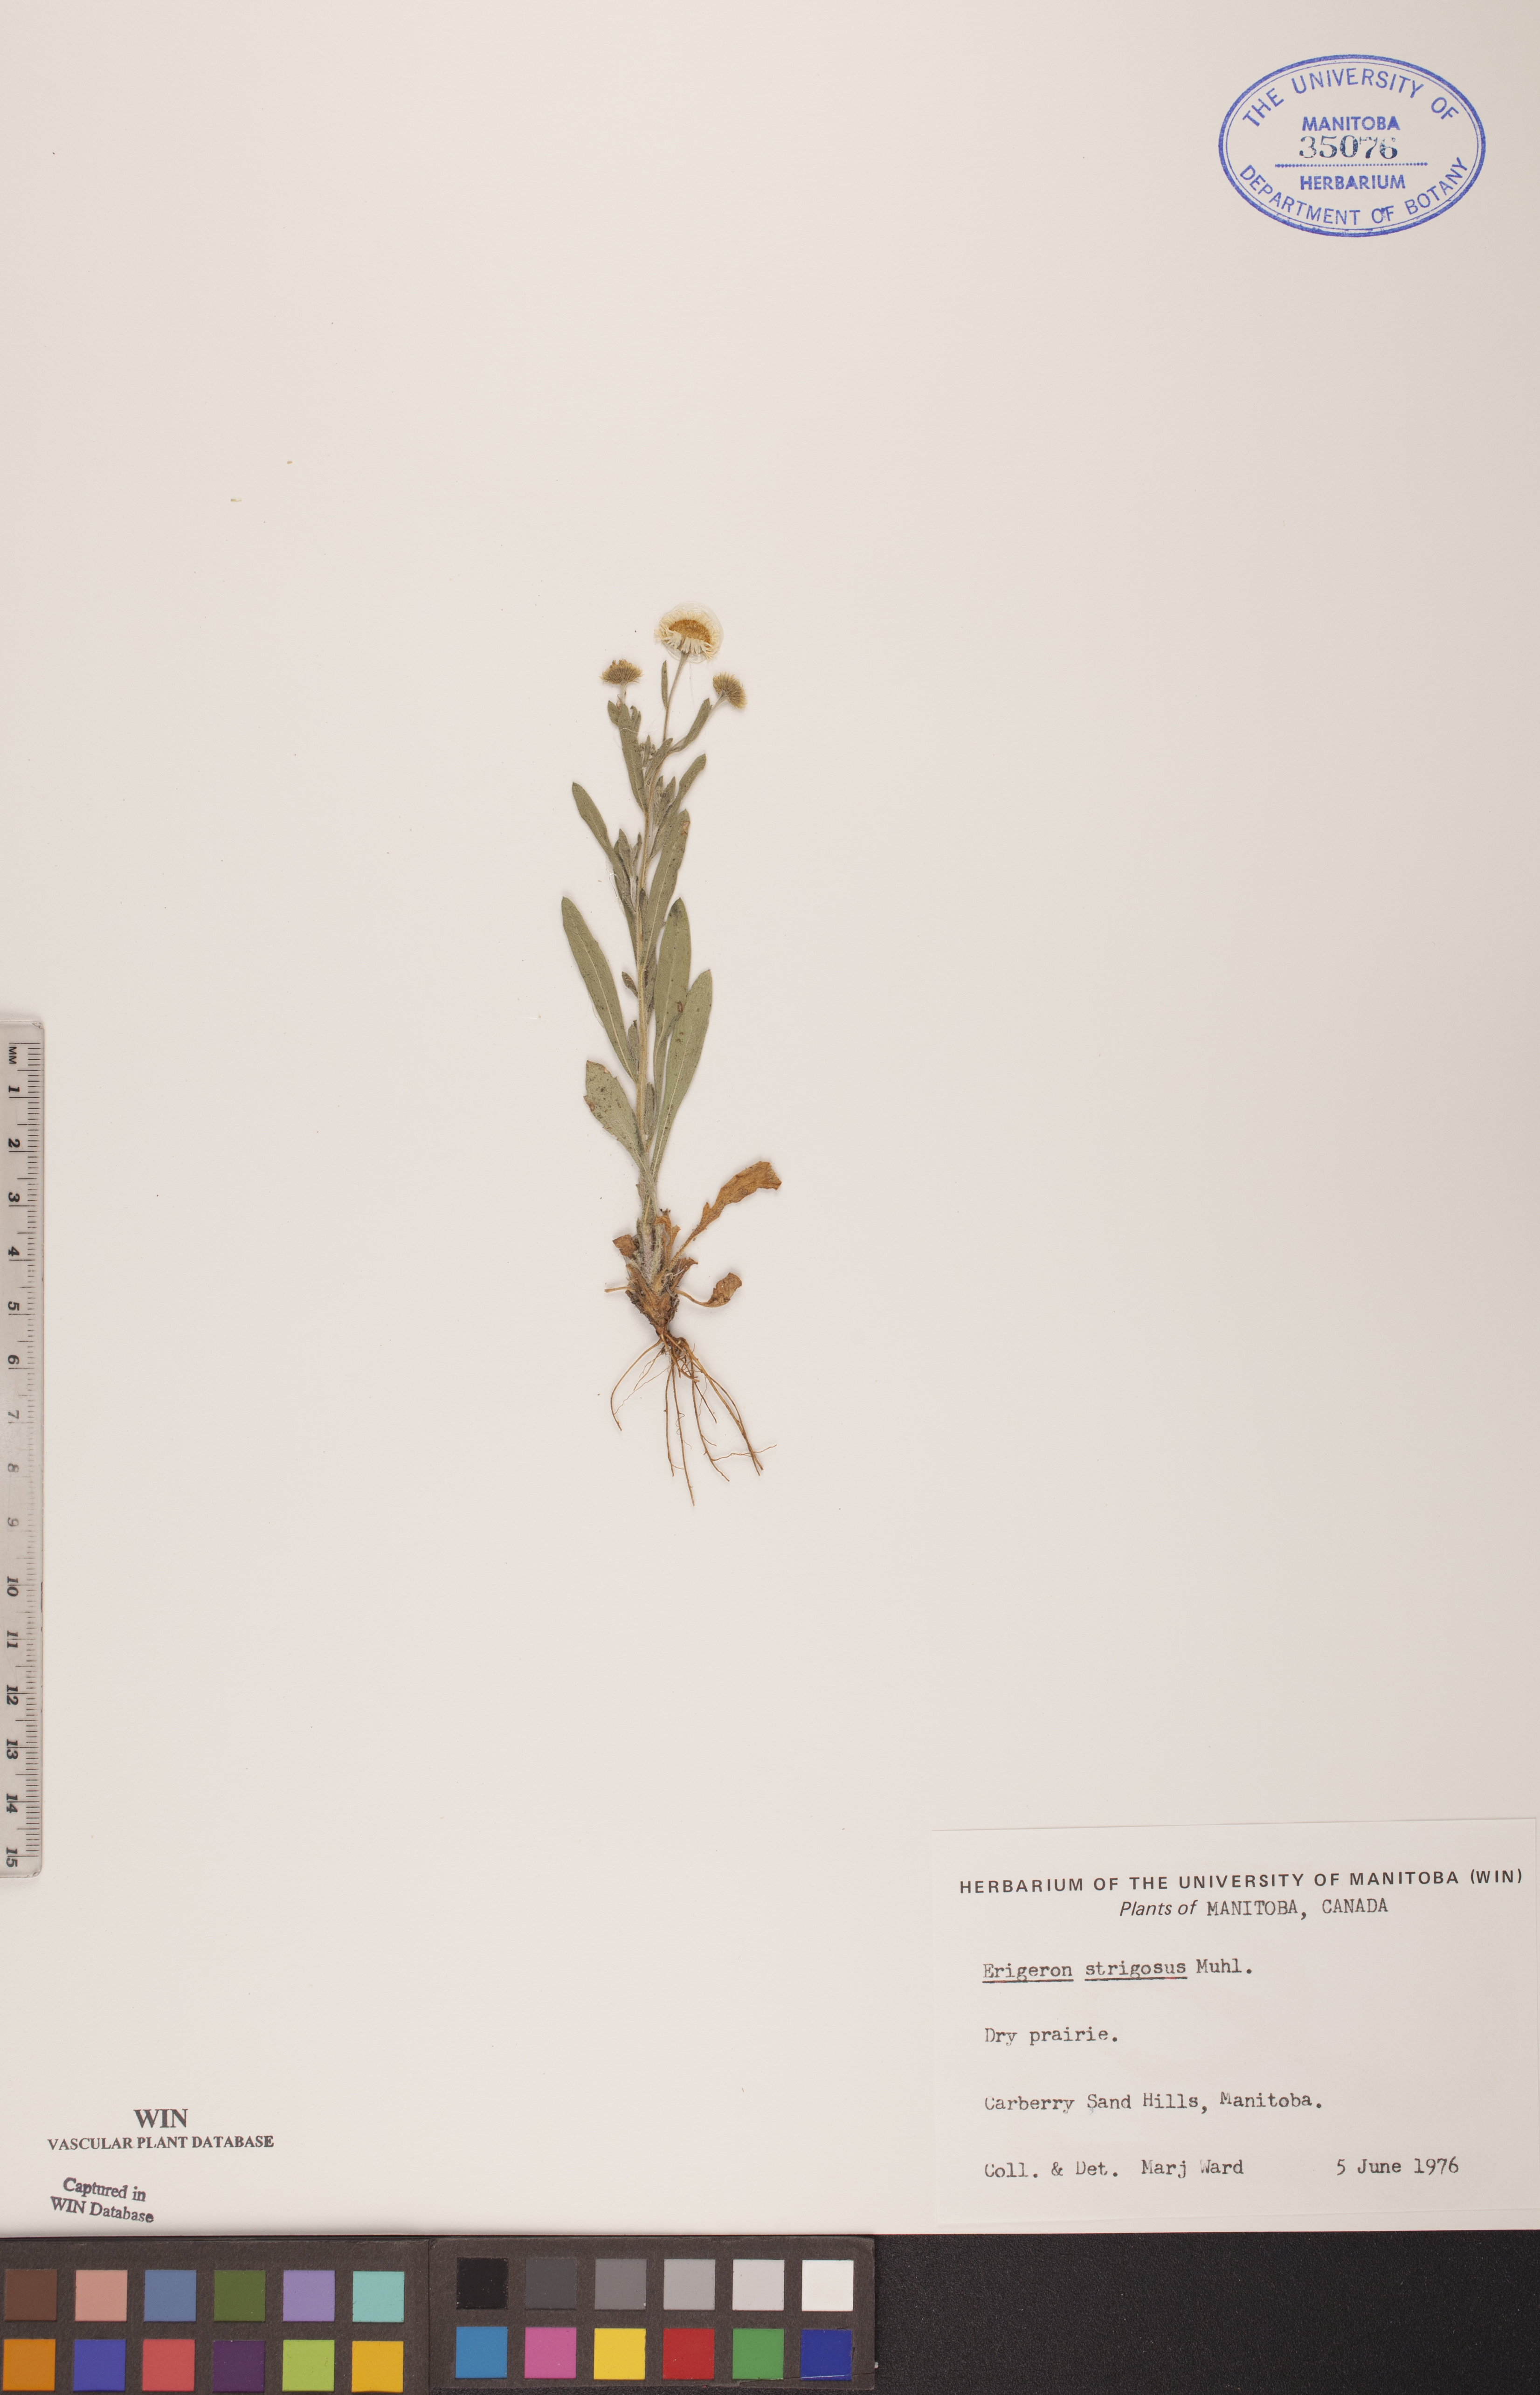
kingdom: Plantae
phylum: Tracheophyta
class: Magnoliopsida
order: Asterales
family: Asteraceae
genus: Erigeron
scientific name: Erigeron strigosus
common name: Common eastern fleabane
